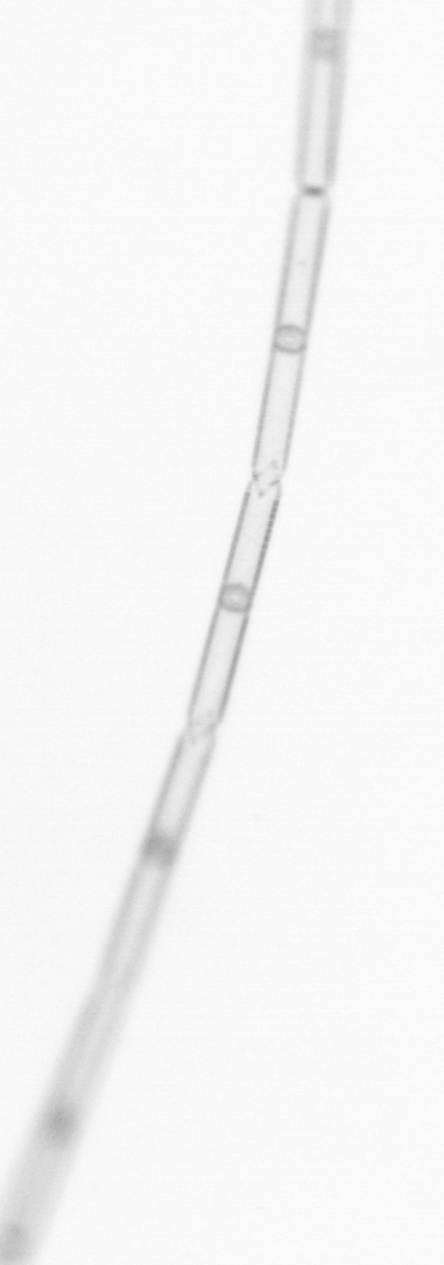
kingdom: Chromista
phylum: Ochrophyta
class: Bacillariophyceae
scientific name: Bacillariophyceae
